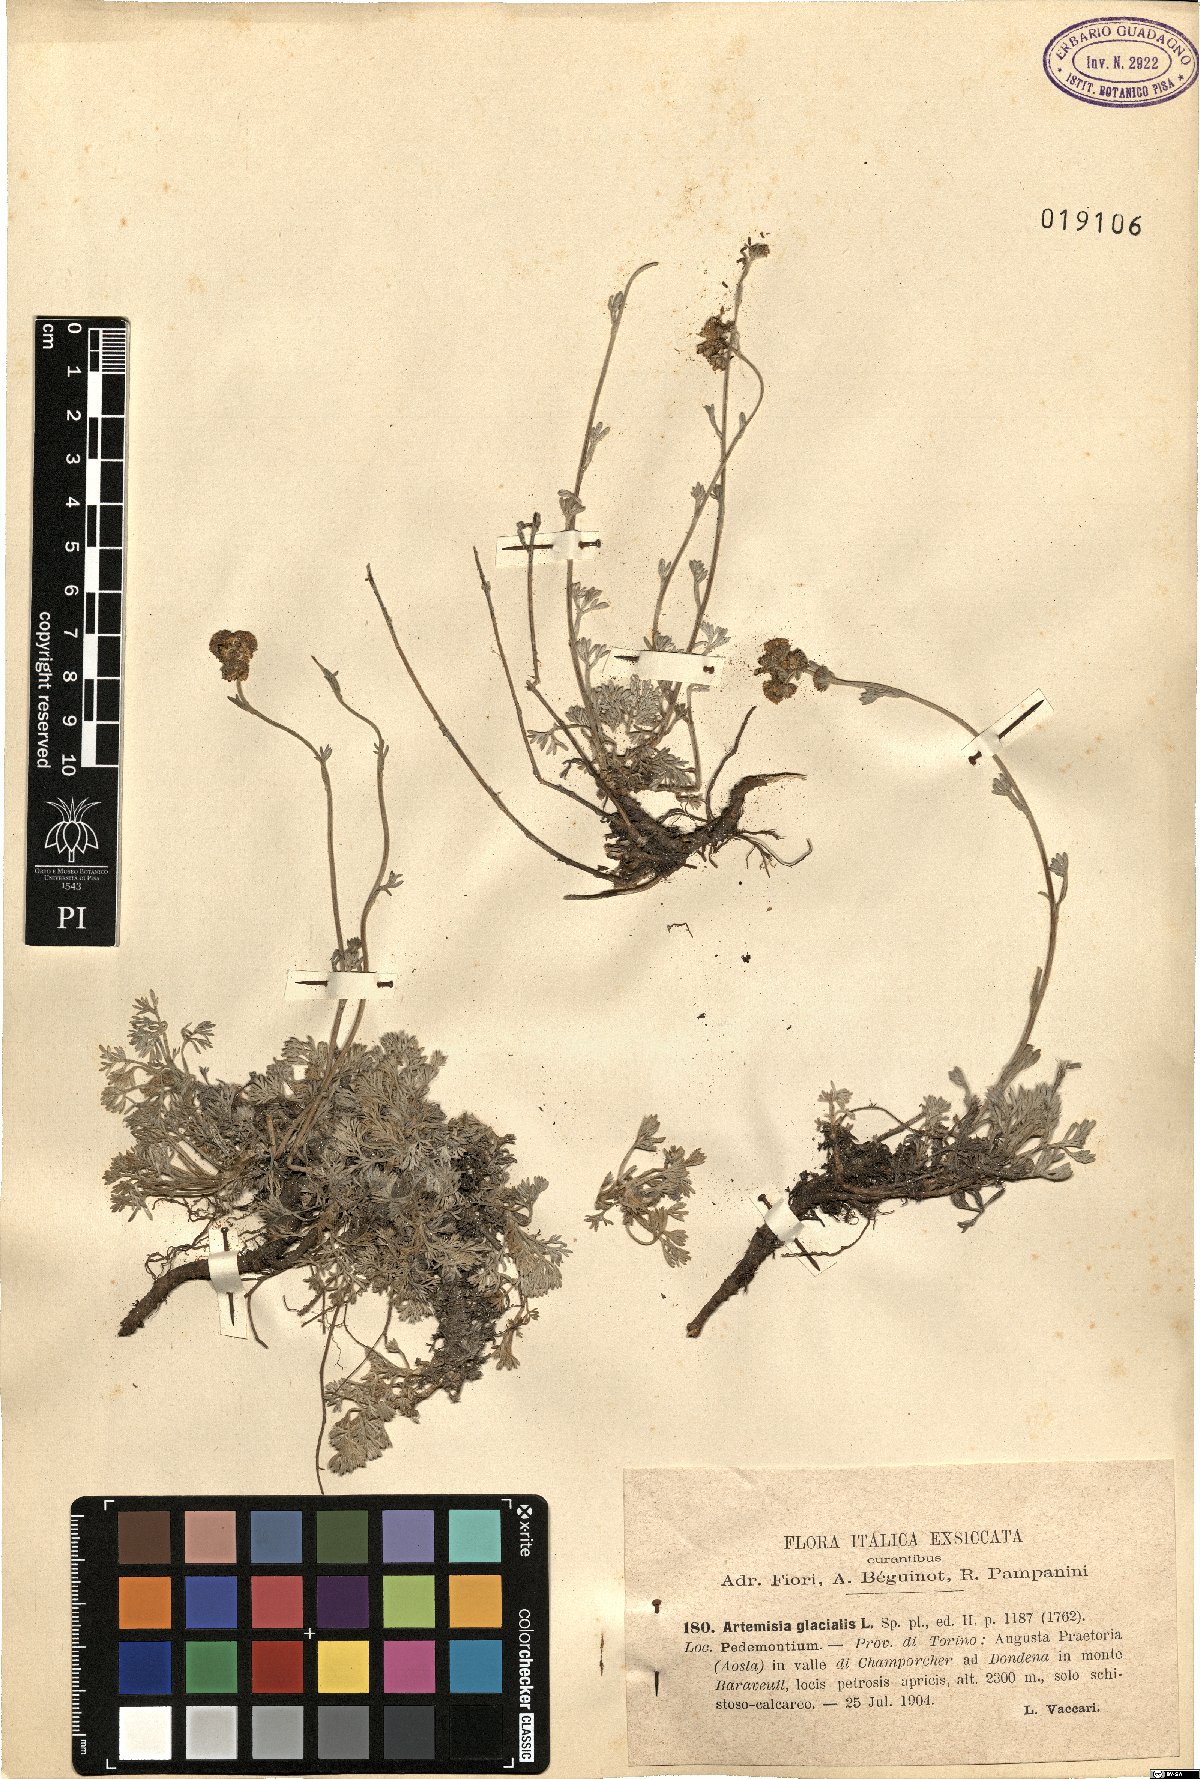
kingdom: Plantae
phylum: Tracheophyta
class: Magnoliopsida
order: Asterales
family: Asteraceae
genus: Artemisia
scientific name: Artemisia glacialis
